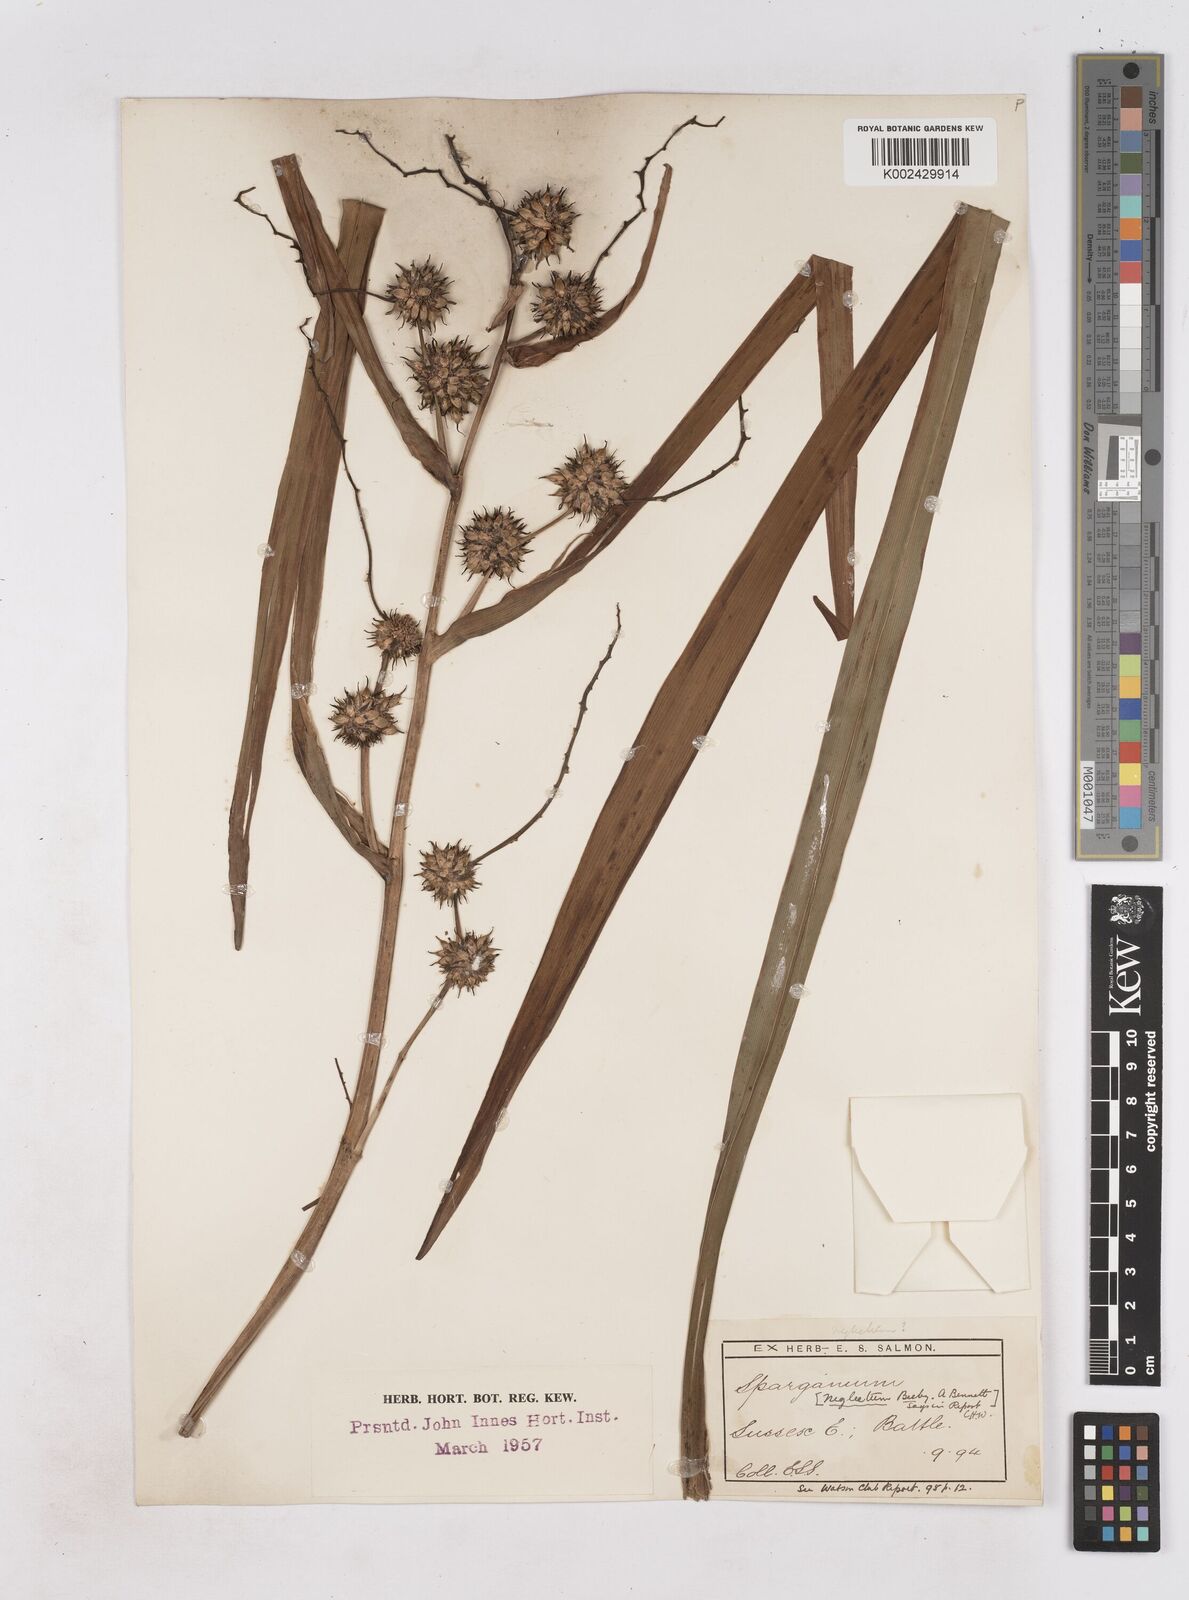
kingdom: Plantae
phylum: Tracheophyta
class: Liliopsida
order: Poales
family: Typhaceae
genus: Sparganium
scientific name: Sparganium erectum
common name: Branched bur-reed
